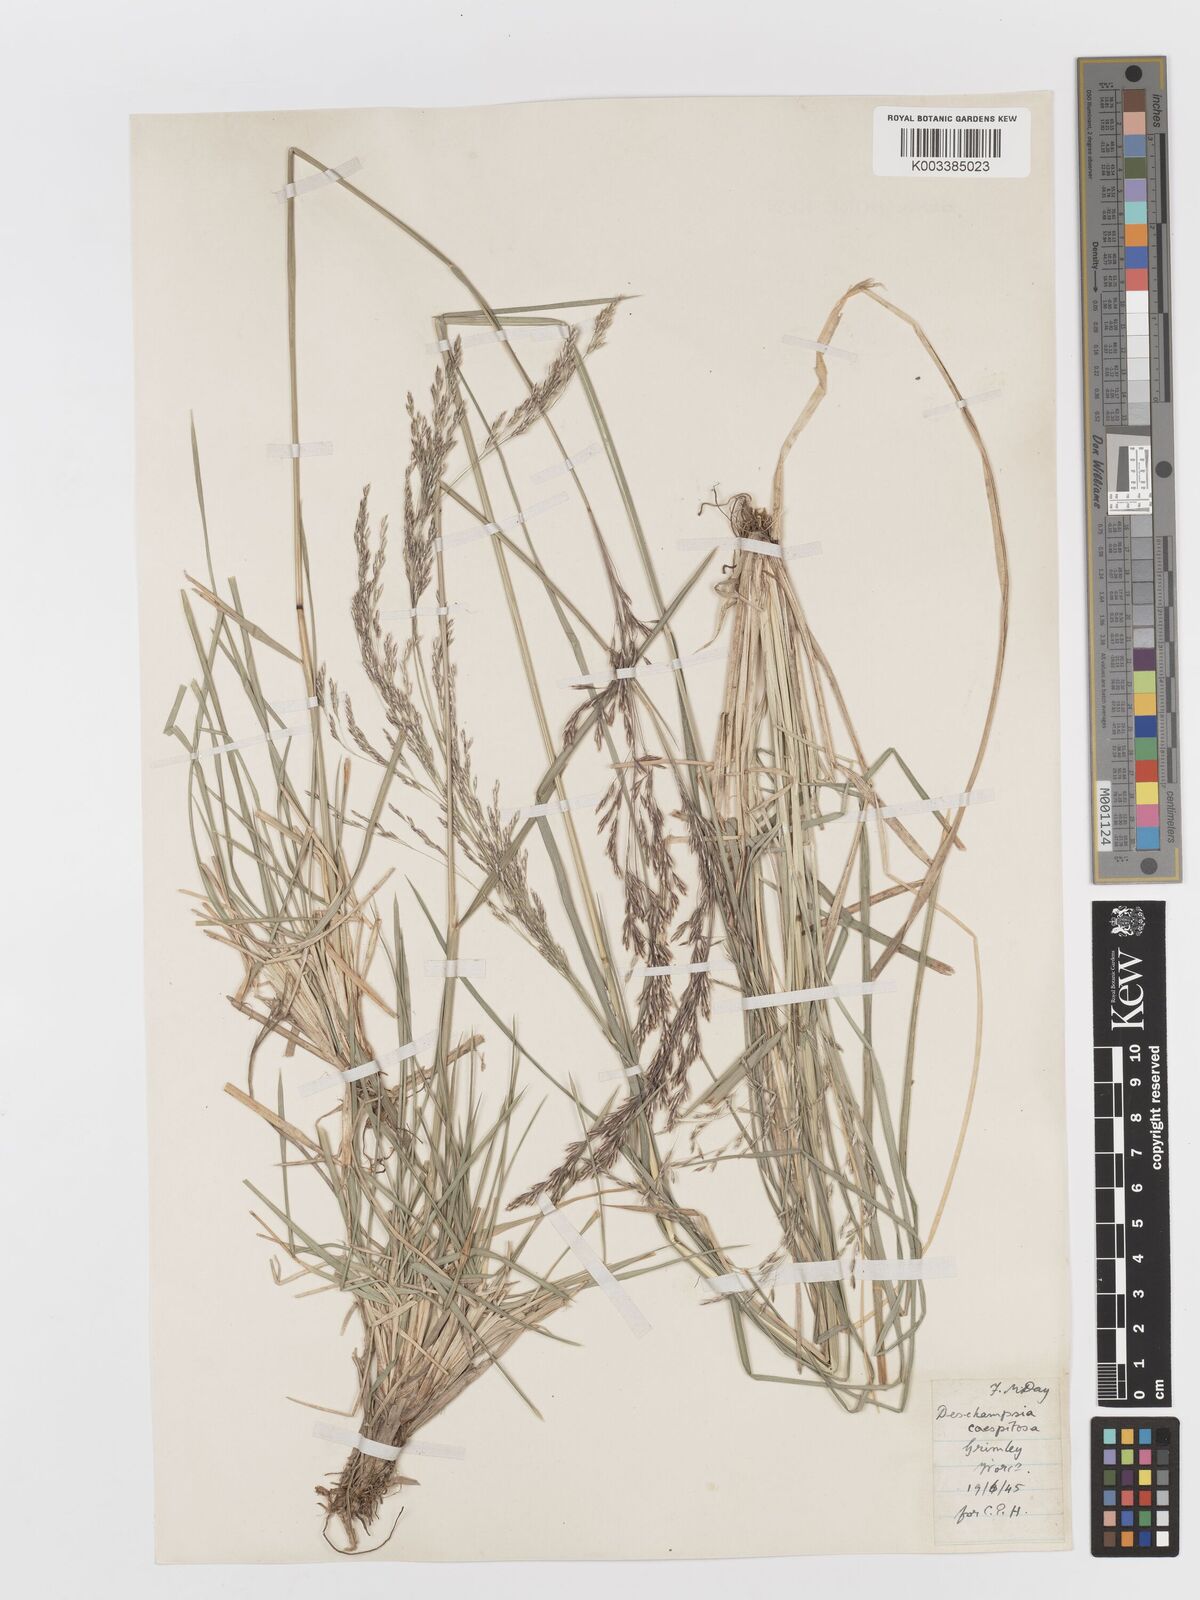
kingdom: Plantae
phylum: Tracheophyta
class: Liliopsida
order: Poales
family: Poaceae
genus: Deschampsia
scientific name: Deschampsia cespitosa
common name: Tufted hair-grass
